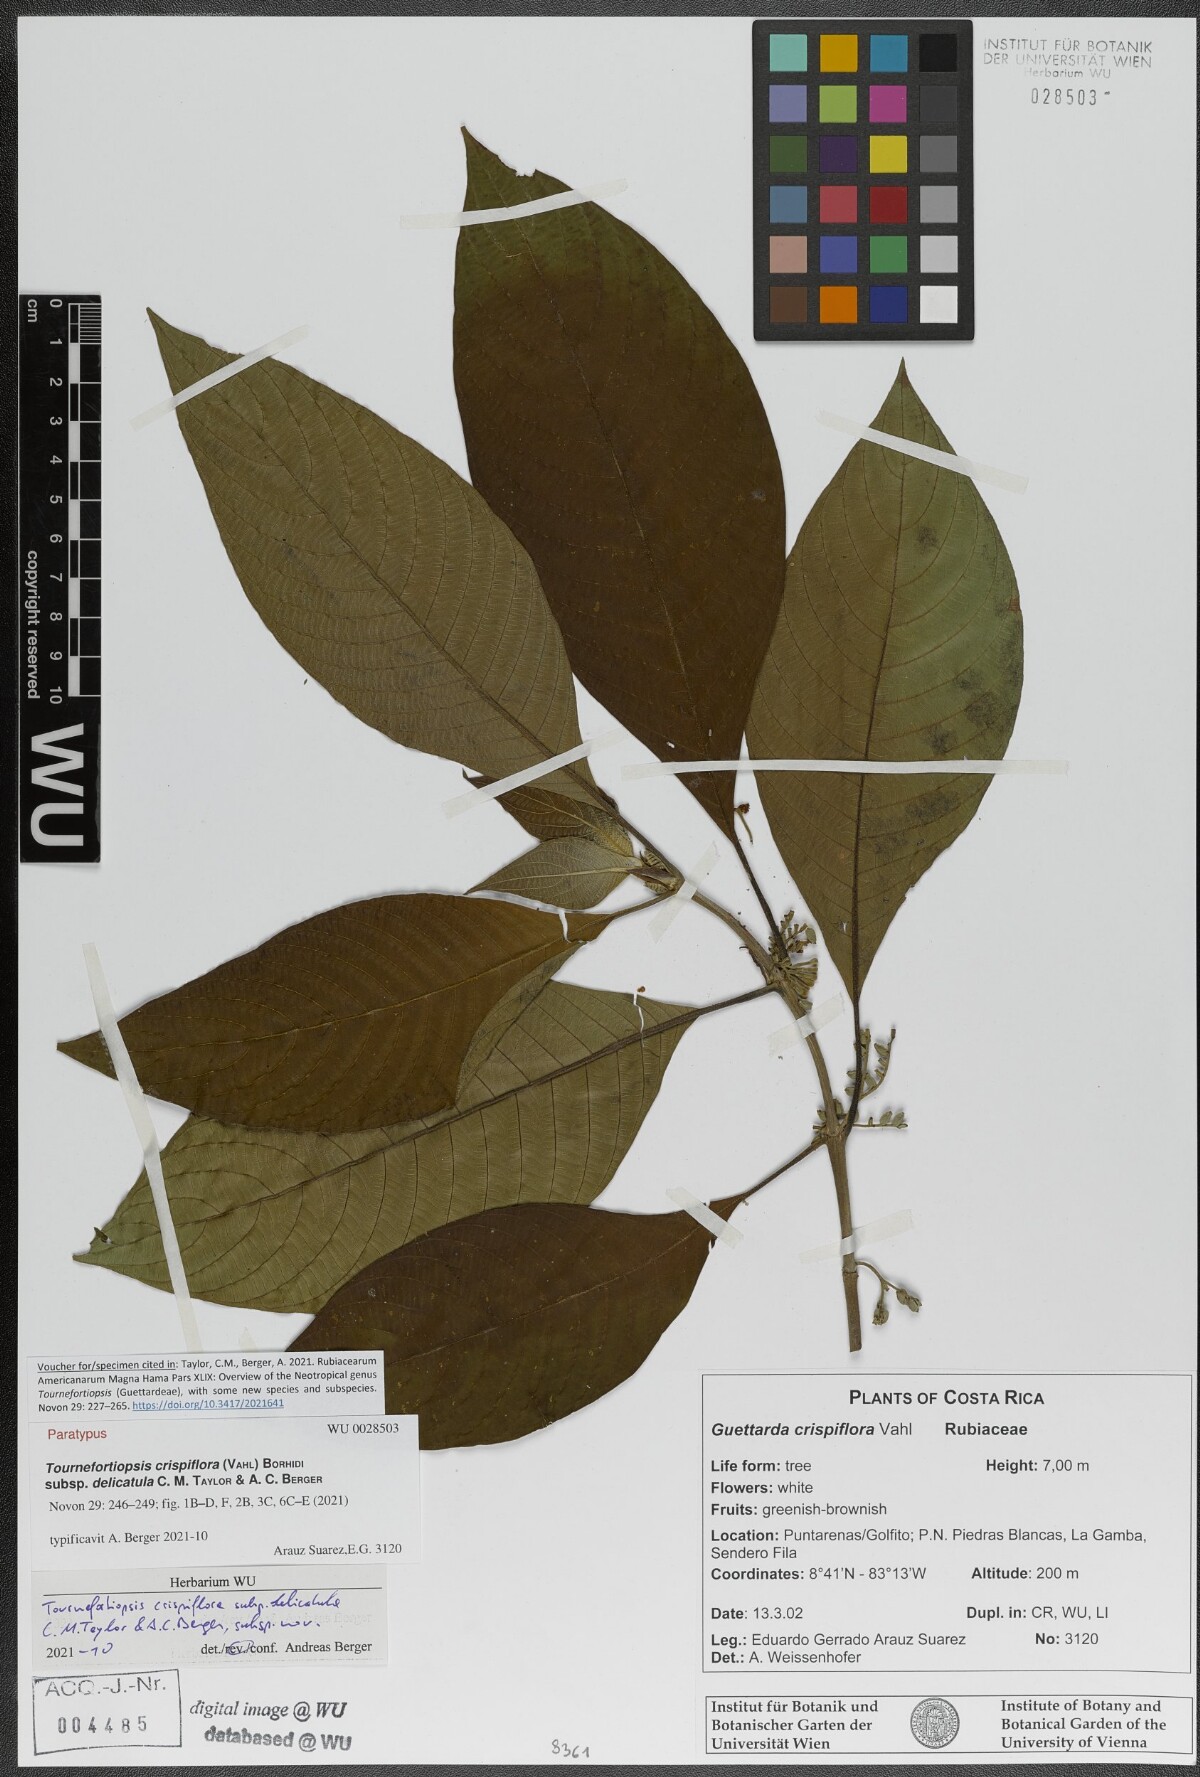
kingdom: Plantae
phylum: Tracheophyta
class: Magnoliopsida
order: Gentianales
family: Rubiaceae
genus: Tournefortiopsis
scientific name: Tournefortiopsis crispiflora
